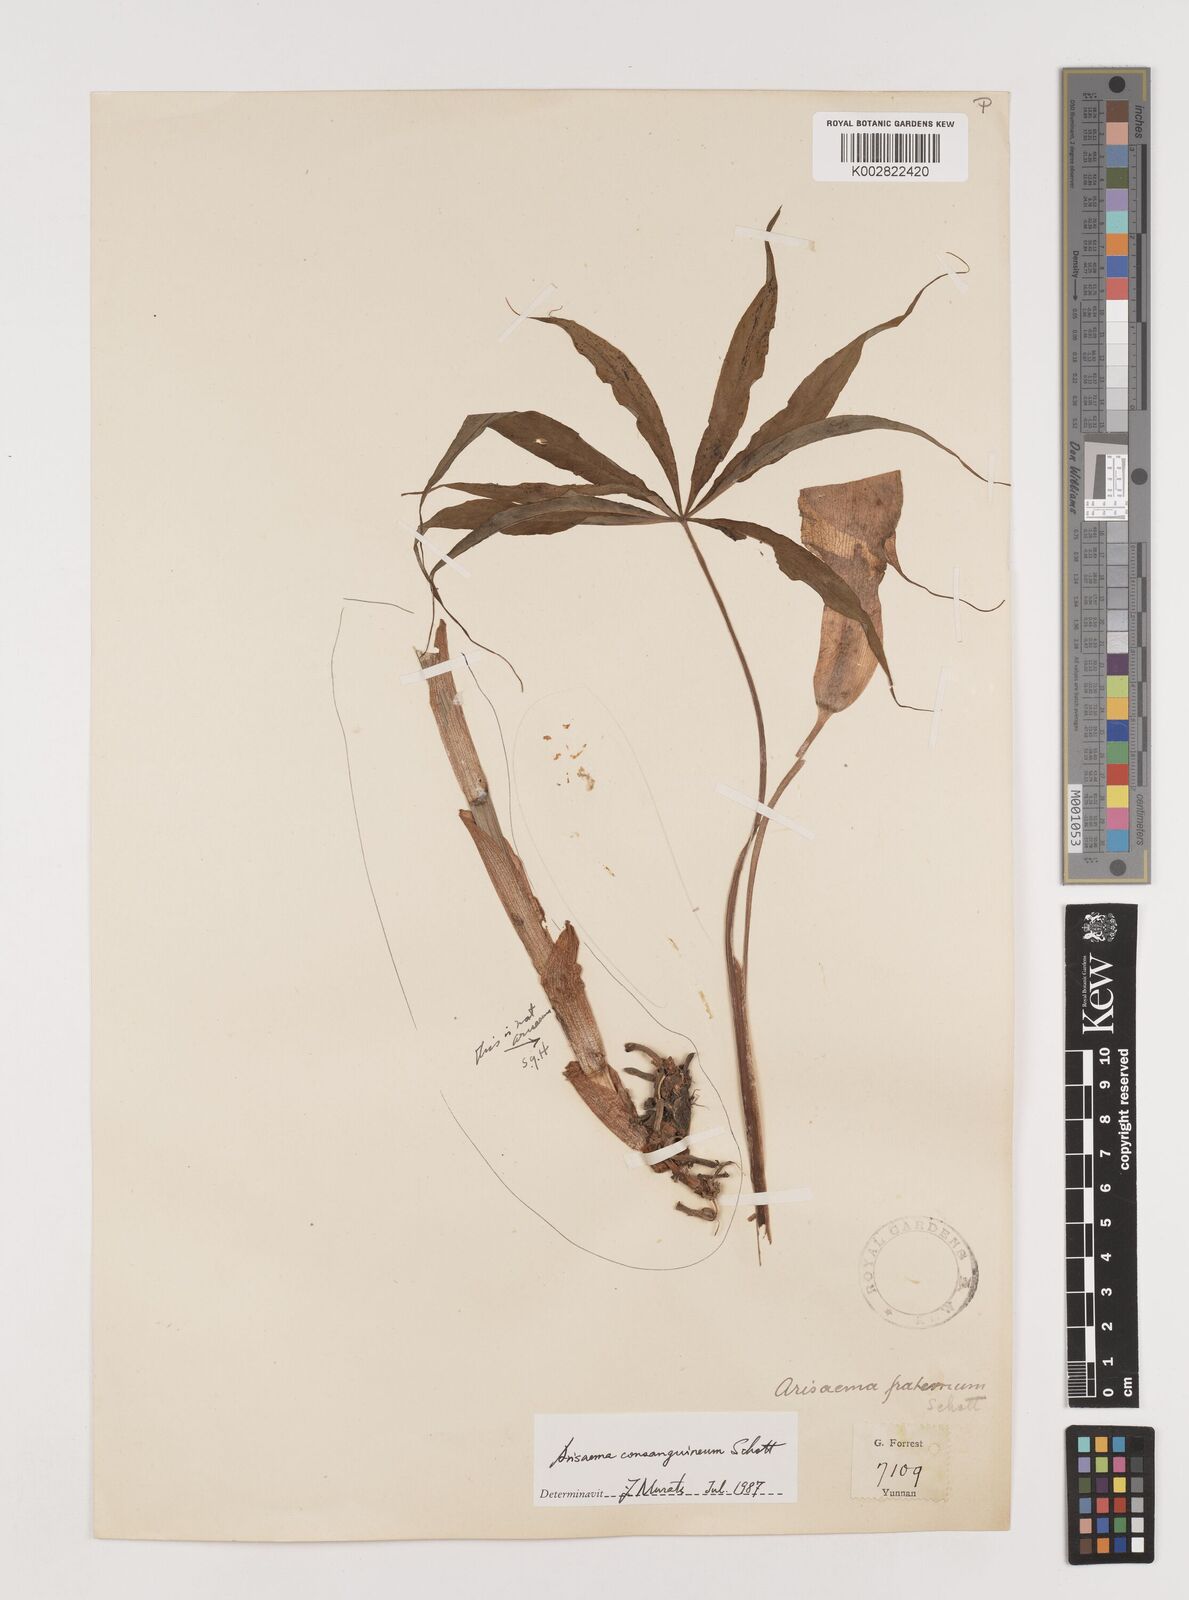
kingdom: Plantae
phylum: Tracheophyta
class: Liliopsida
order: Alismatales
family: Araceae
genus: Arisaema
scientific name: Arisaema erubescens
